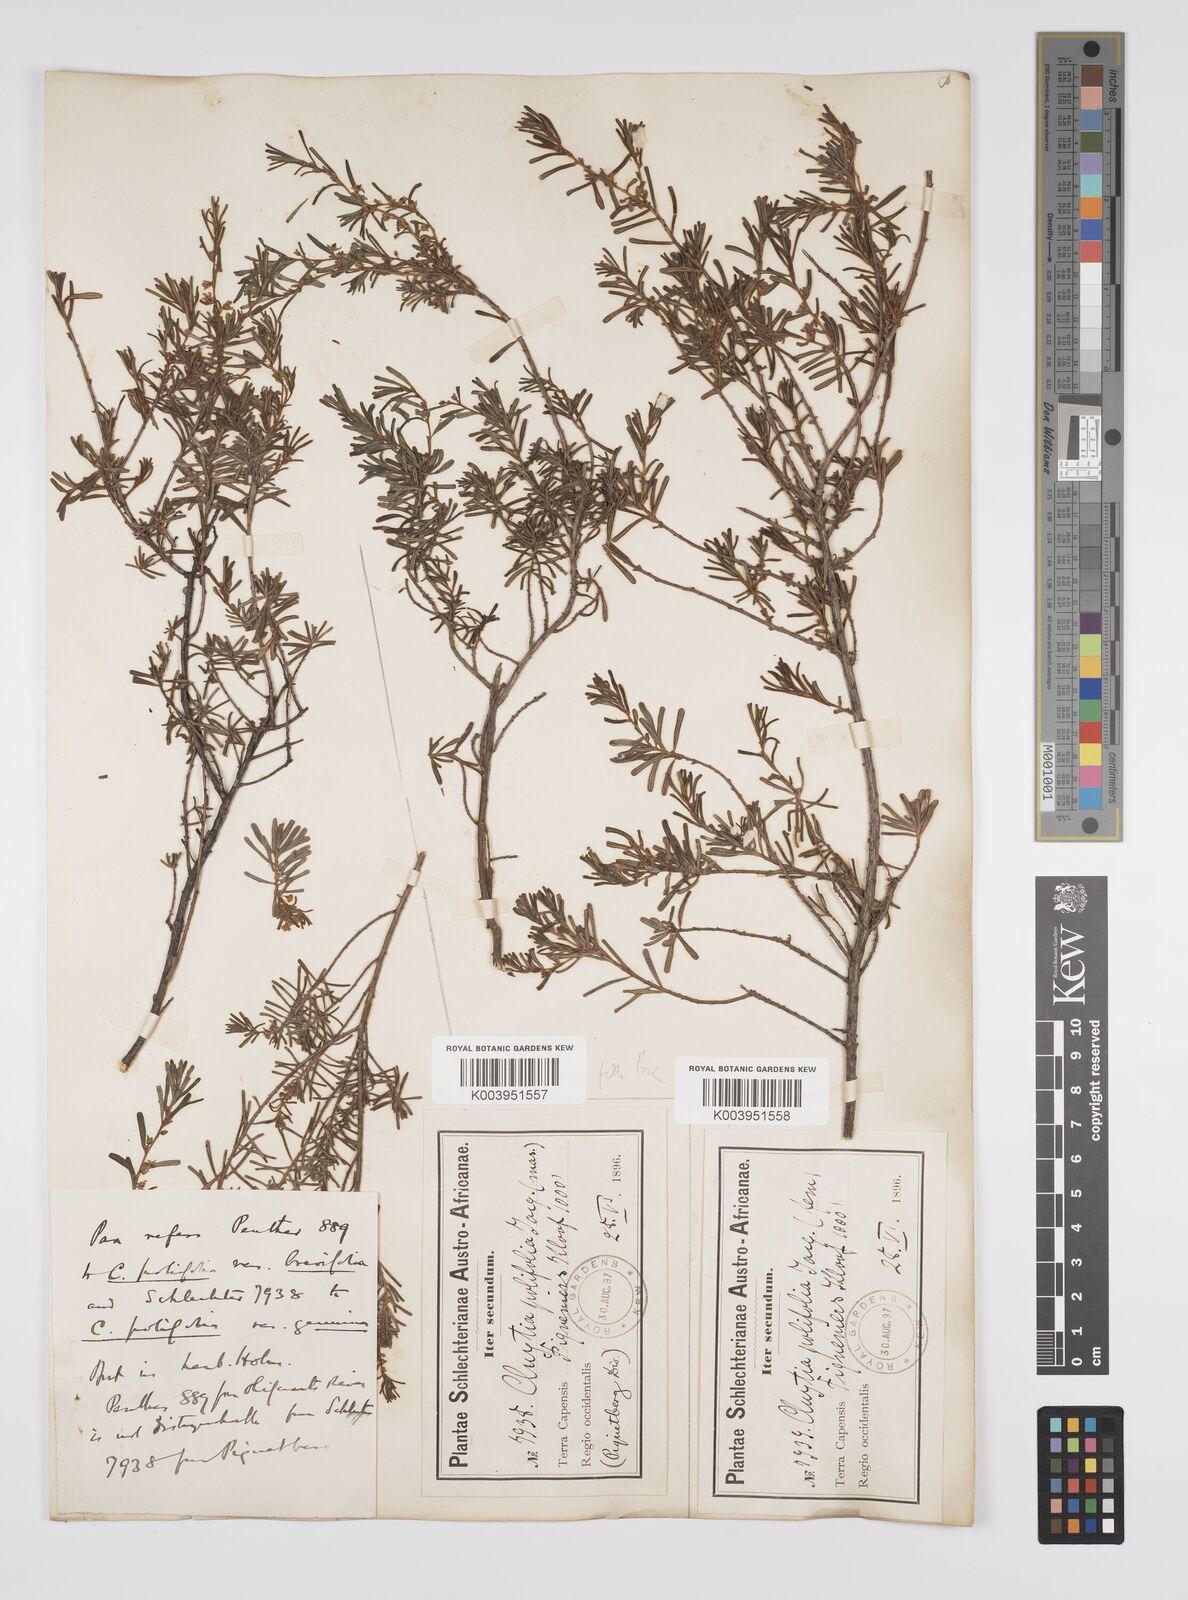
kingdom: Plantae
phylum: Tracheophyta
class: Magnoliopsida
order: Malpighiales
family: Peraceae
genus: Clutia
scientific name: Clutia
